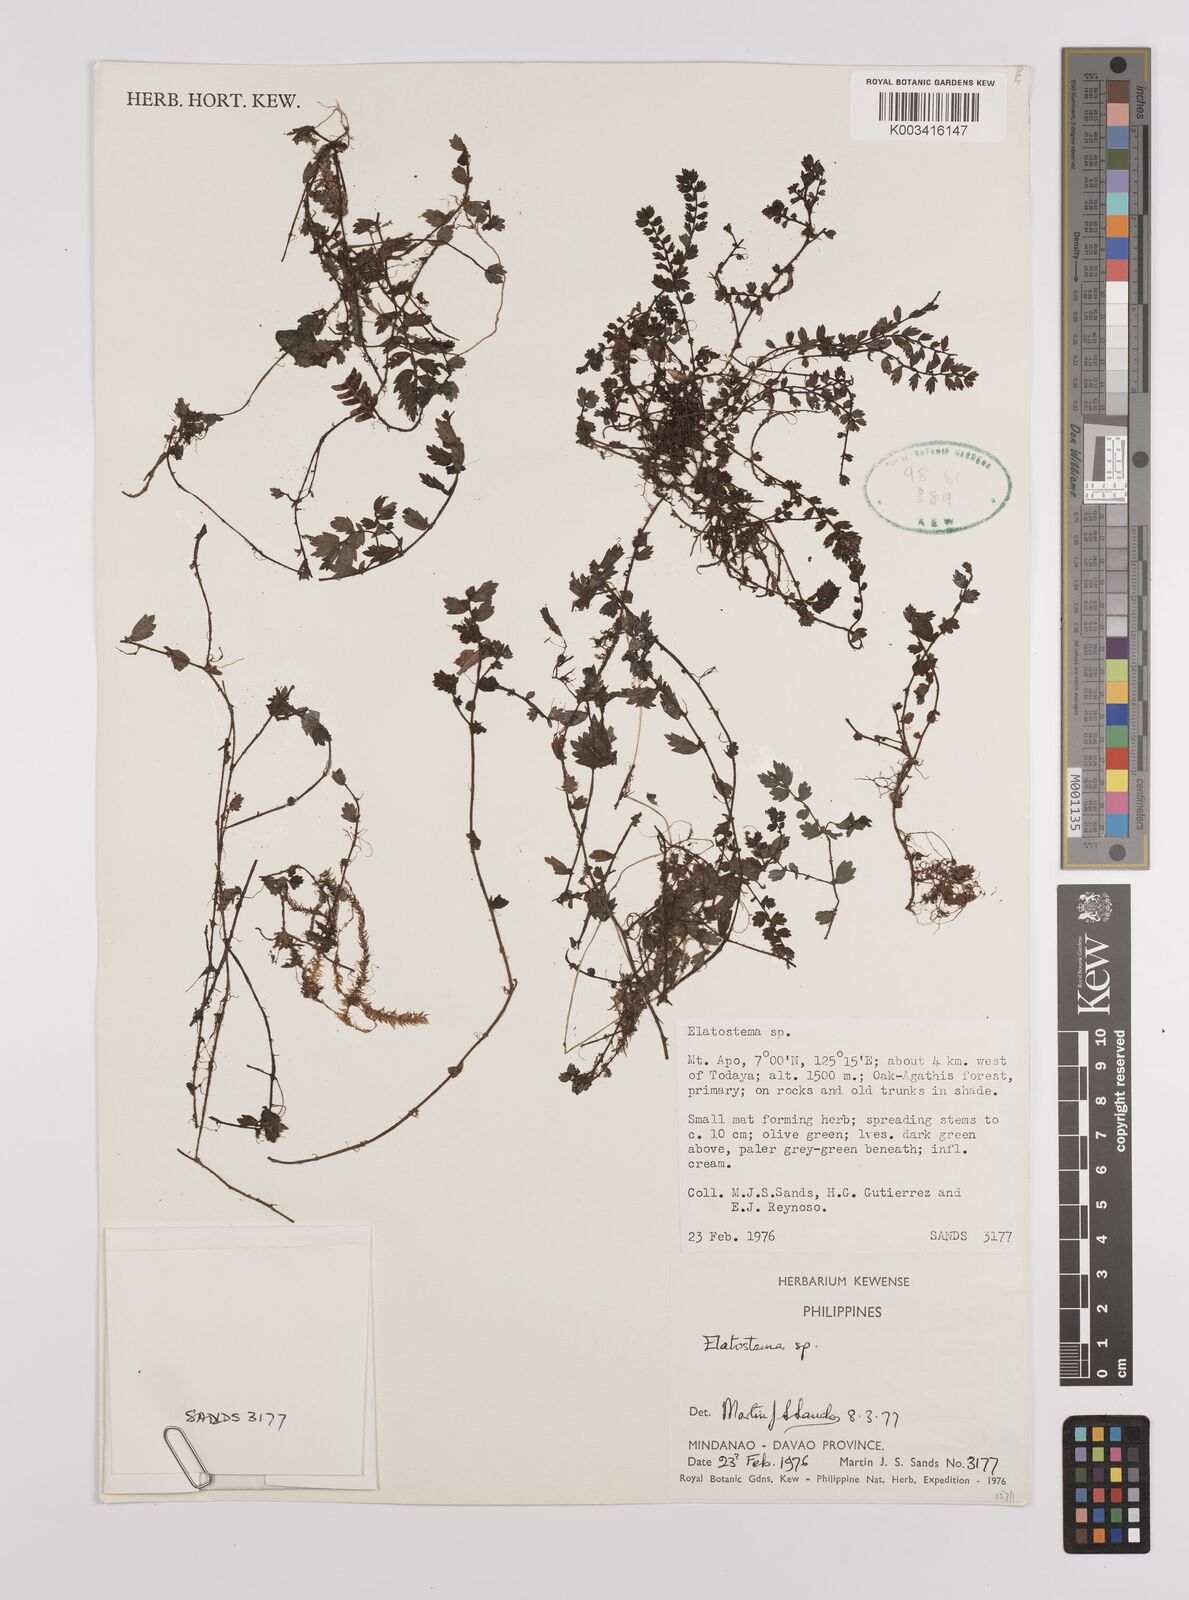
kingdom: Plantae
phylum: Tracheophyta
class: Magnoliopsida
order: Rosales
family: Urticaceae
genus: Elatostema
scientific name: Elatostema
